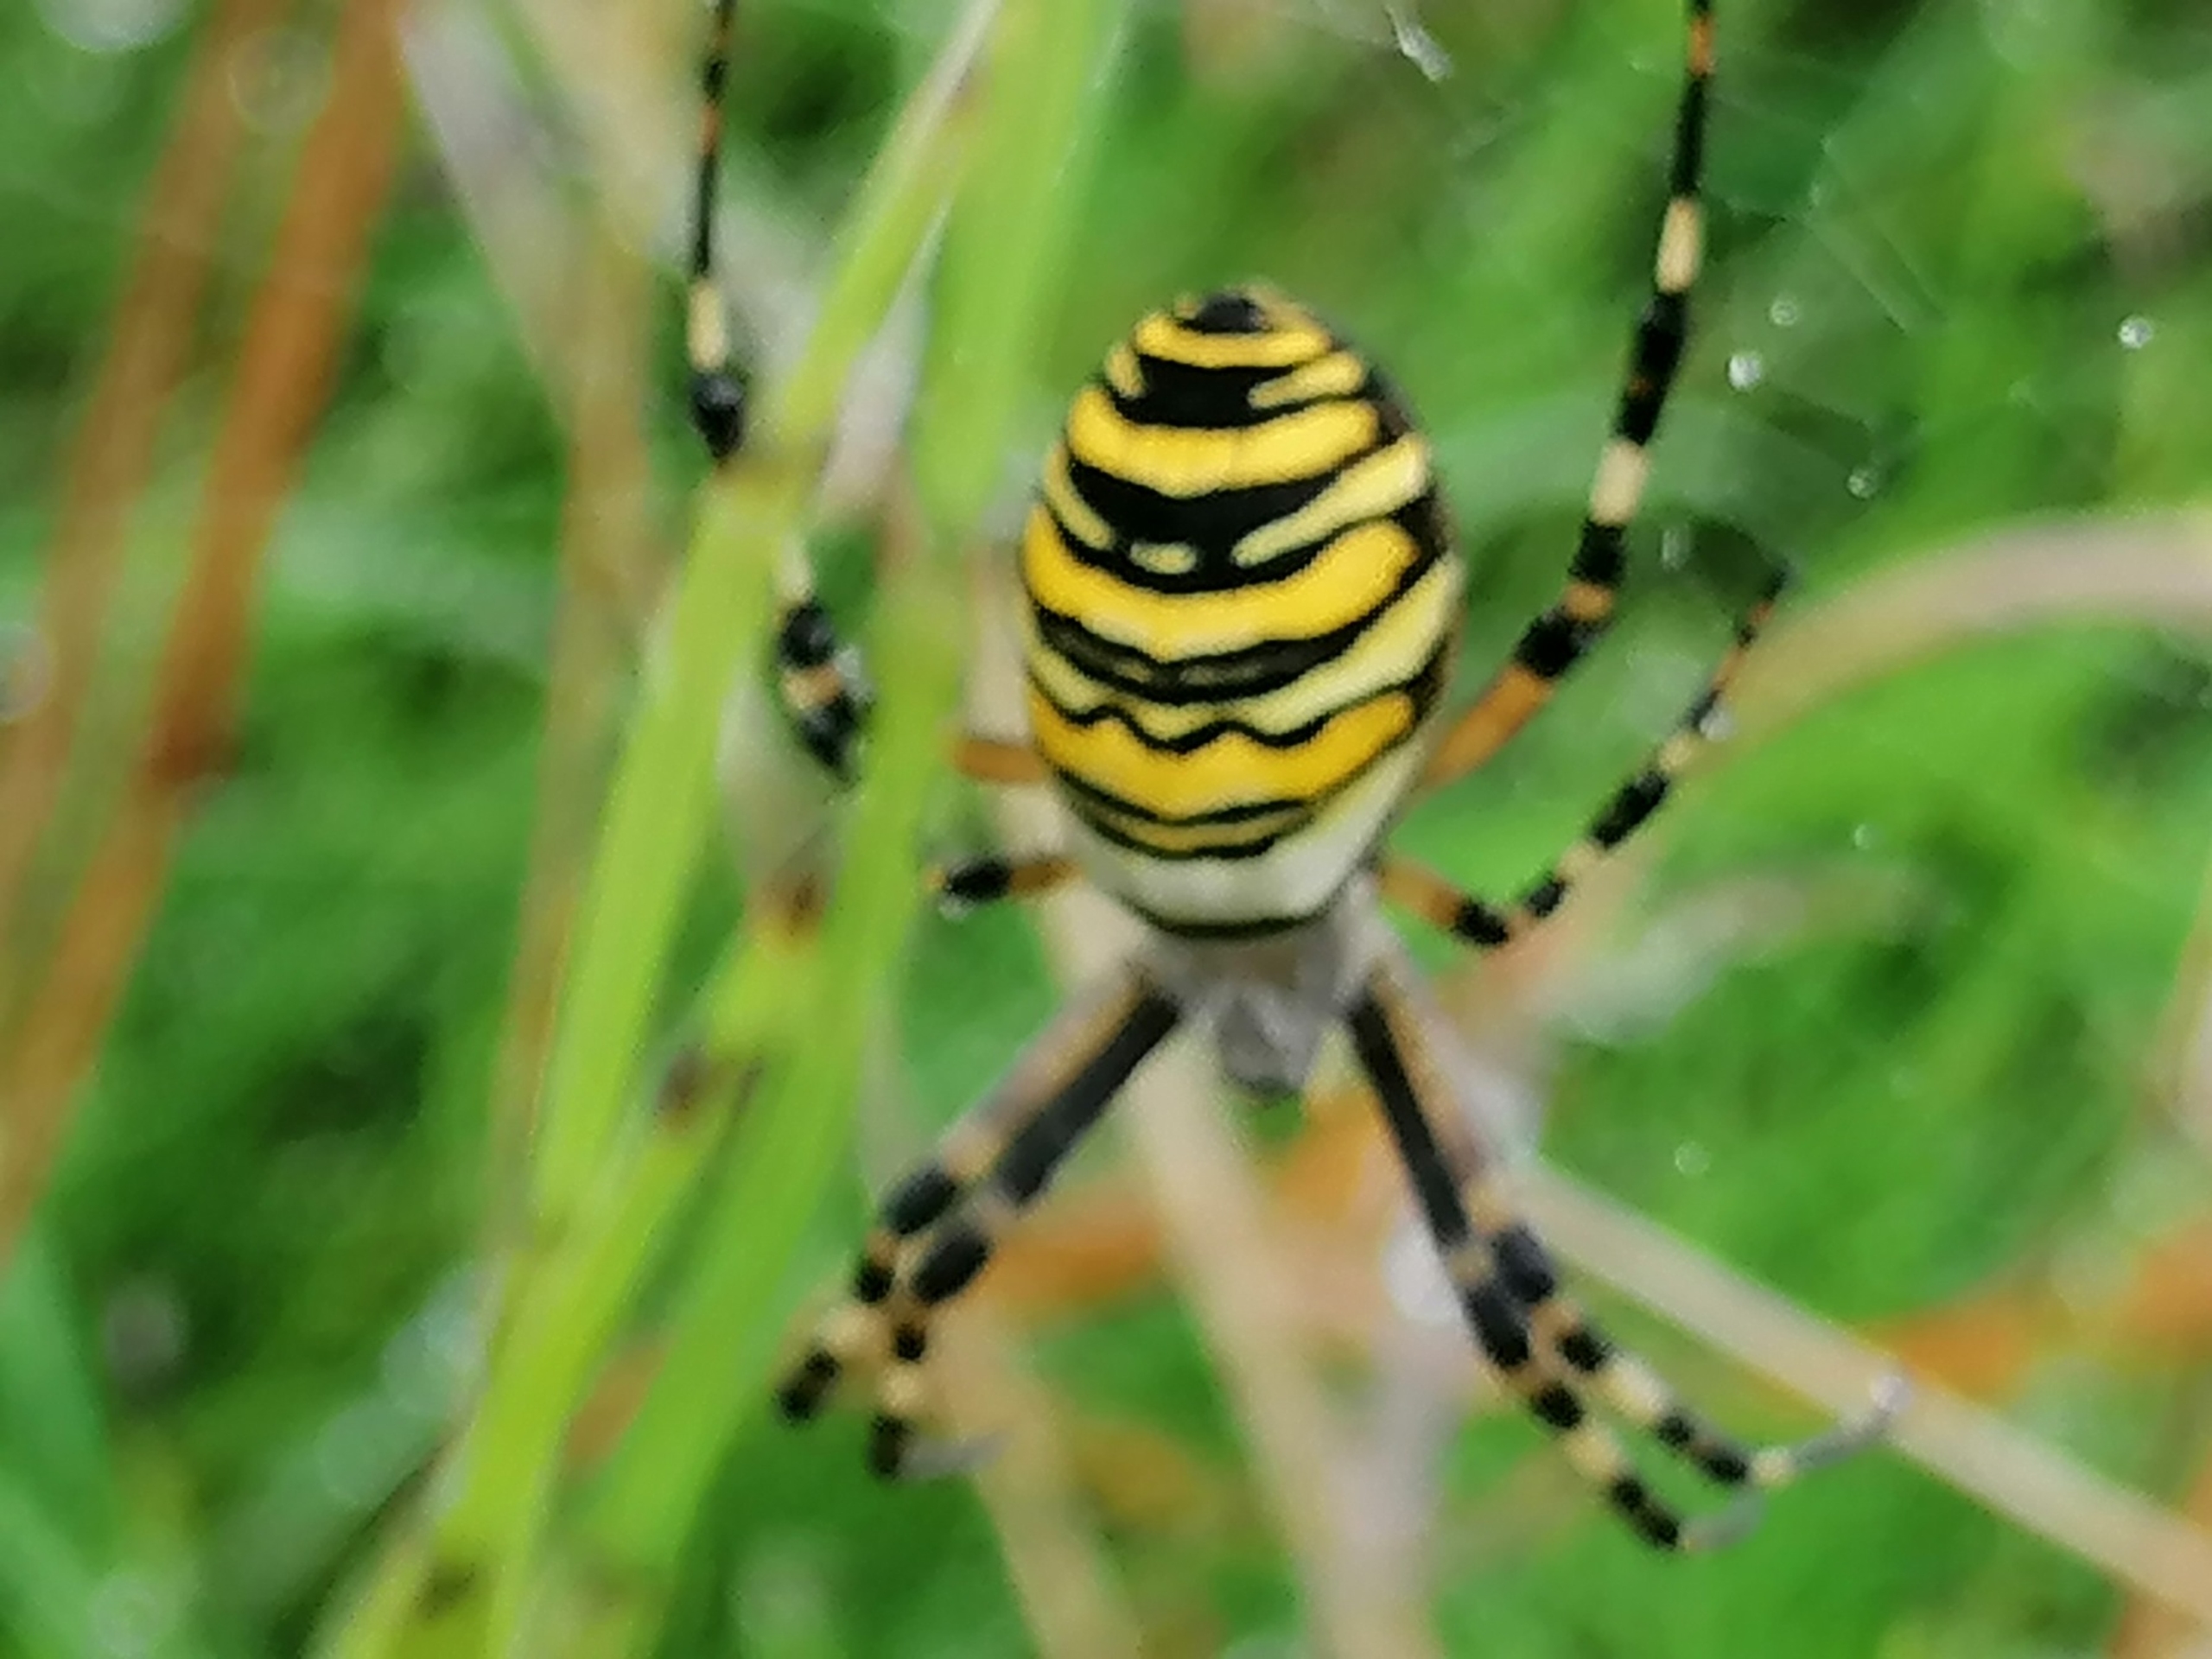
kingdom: Animalia
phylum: Arthropoda
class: Arachnida
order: Araneae
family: Araneidae
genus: Argiope
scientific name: Argiope bruennichi
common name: Hvepseedderkop
